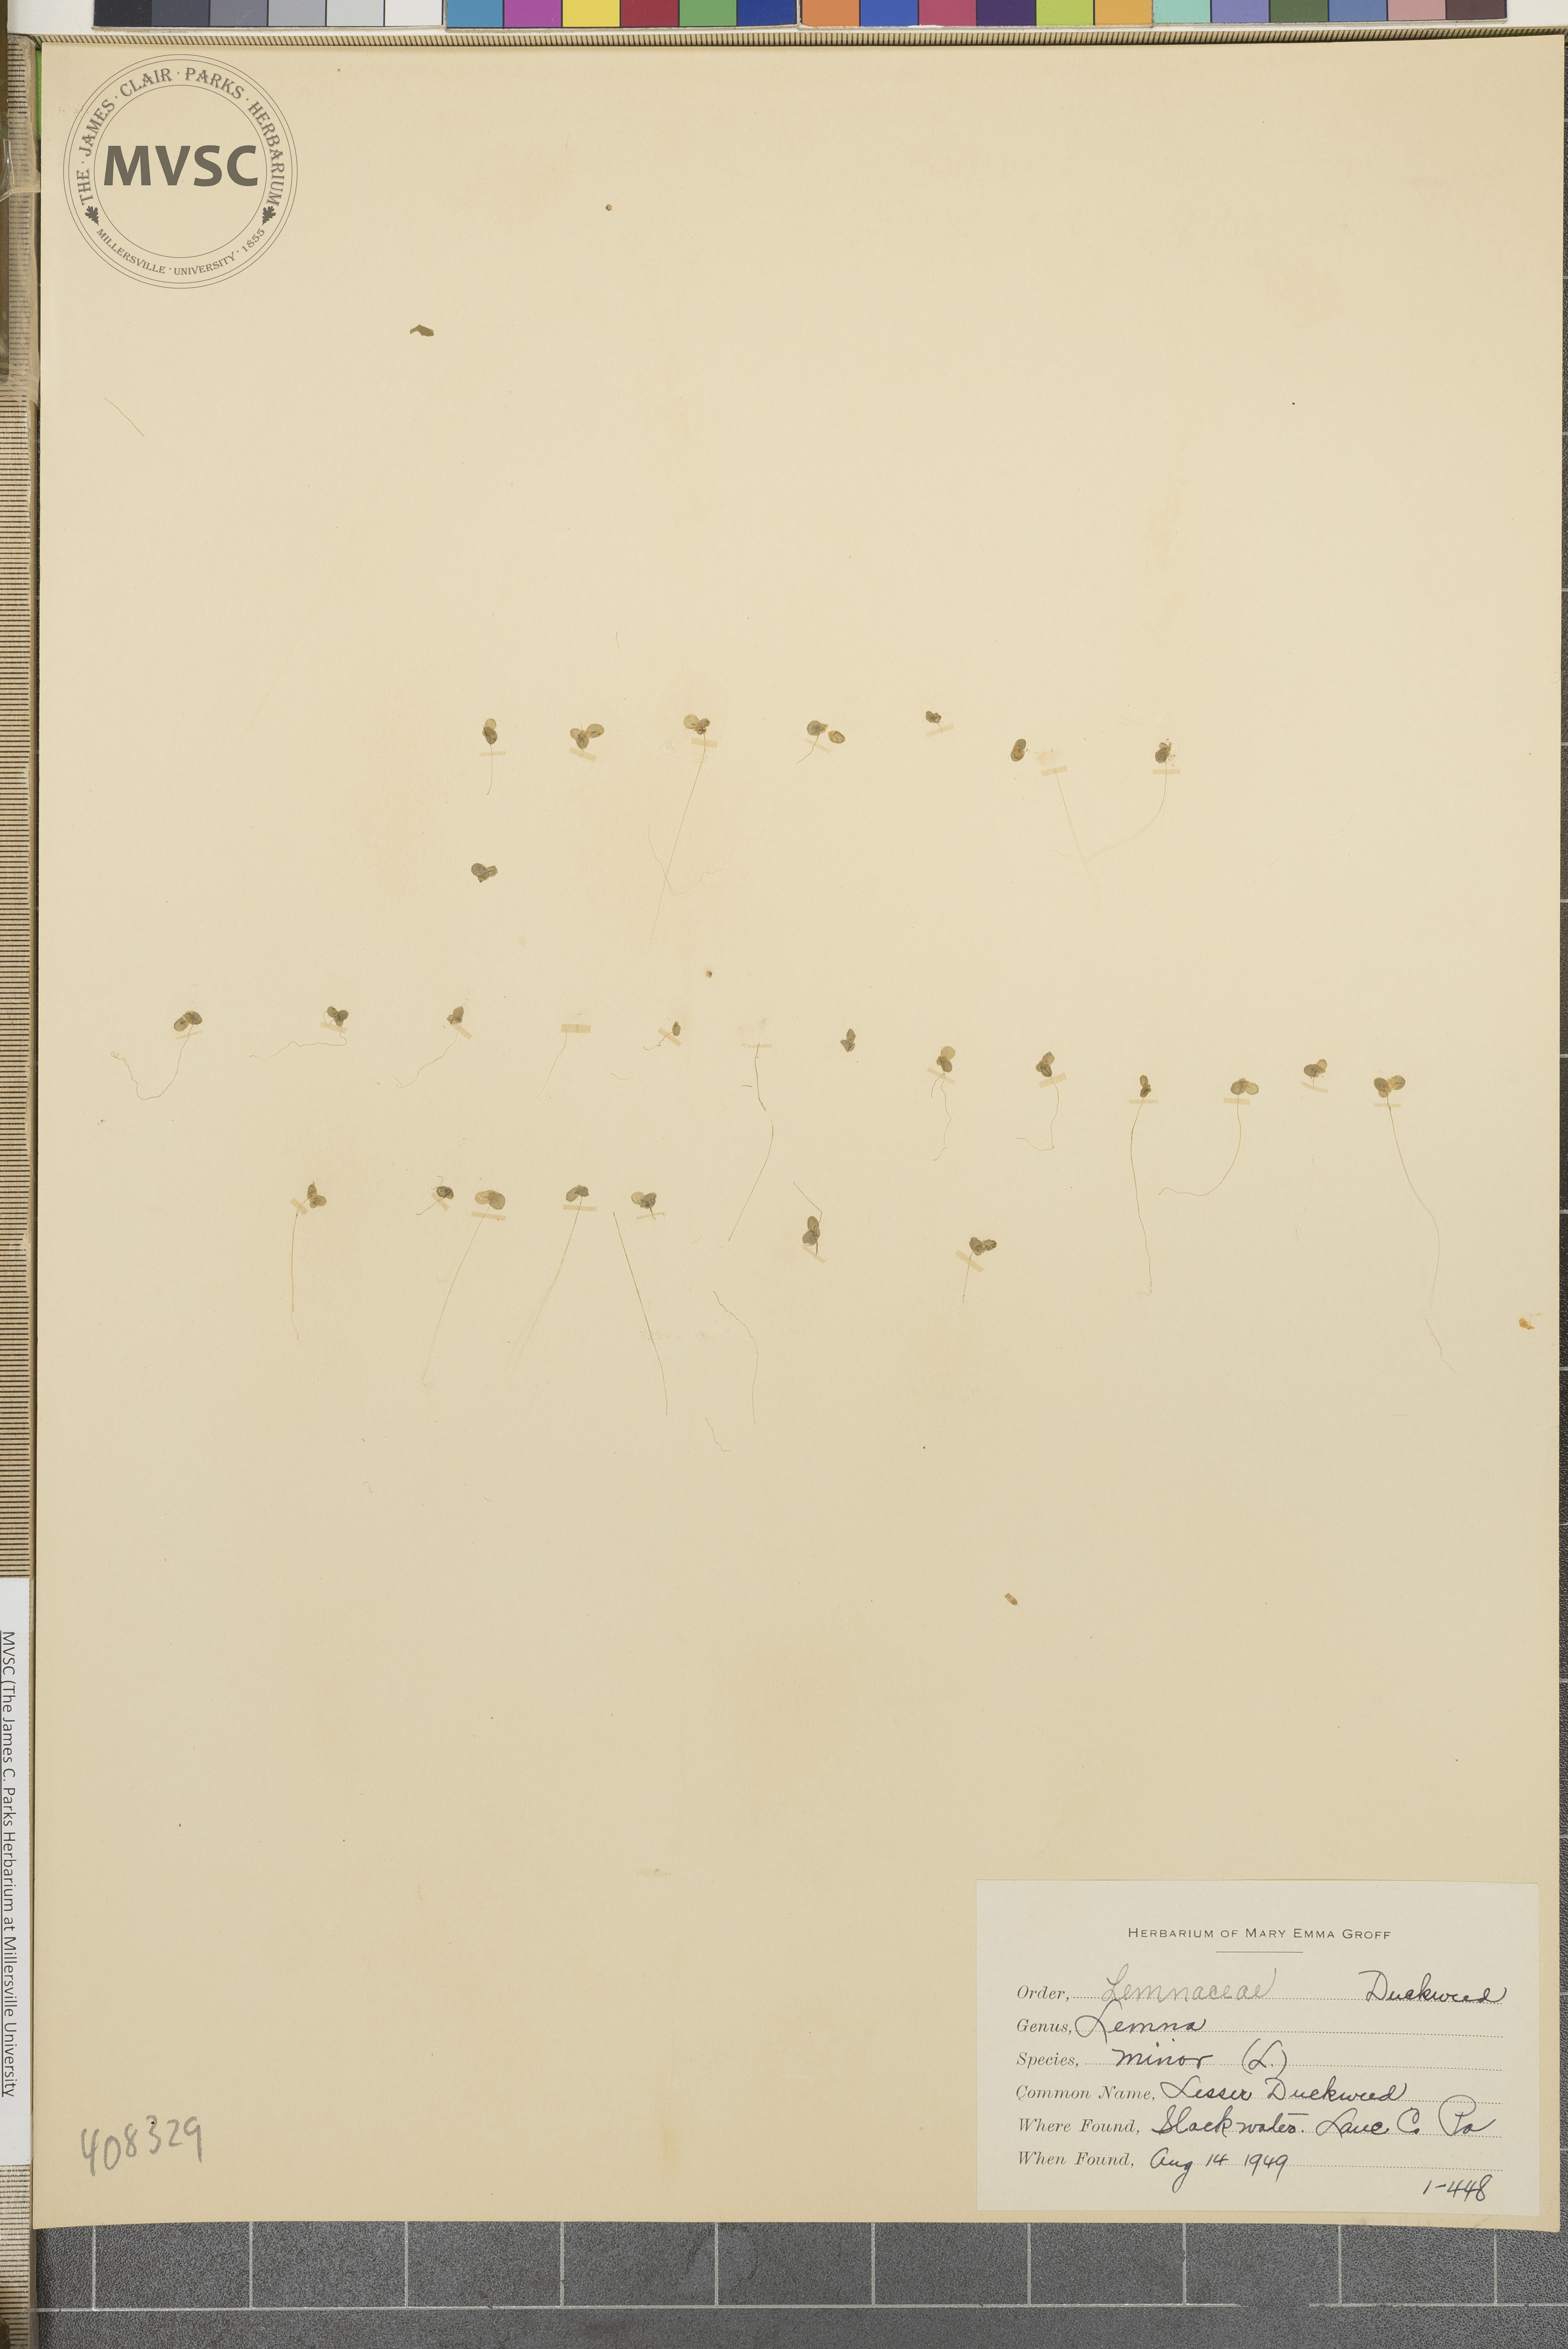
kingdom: Plantae
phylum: Tracheophyta
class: Liliopsida
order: Alismatales
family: Araceae
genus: Lemna
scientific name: Lemna minor
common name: Lesser Duckweed
